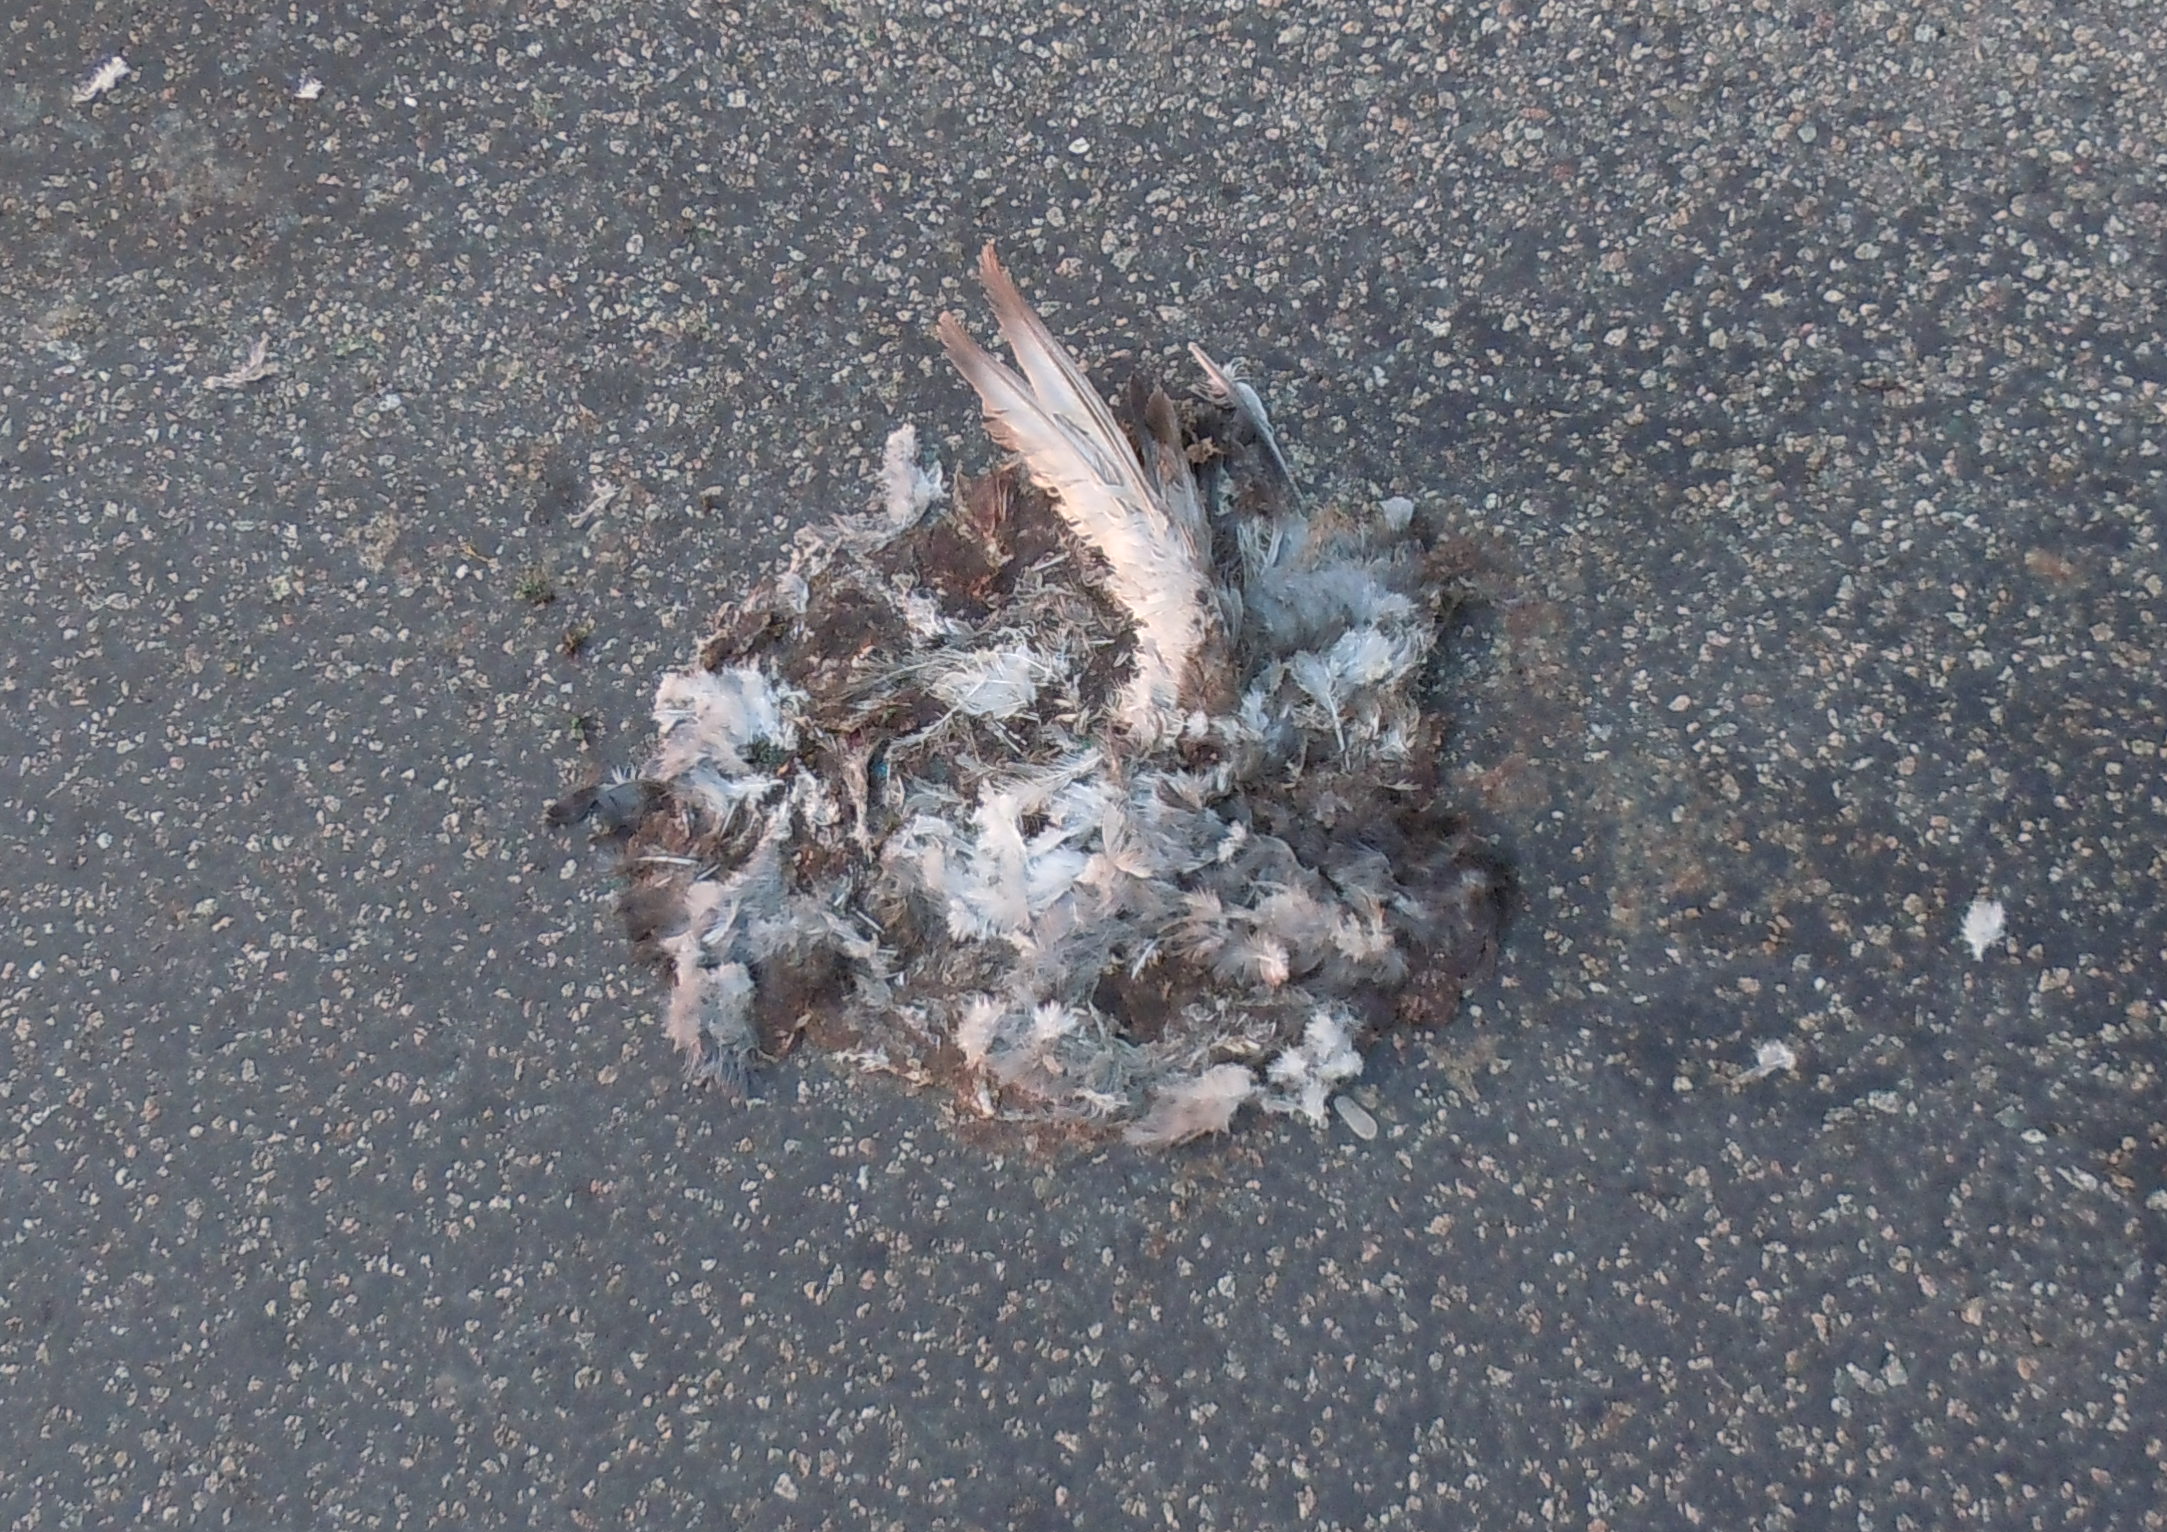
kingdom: Animalia
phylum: Chordata
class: Aves
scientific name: Aves
